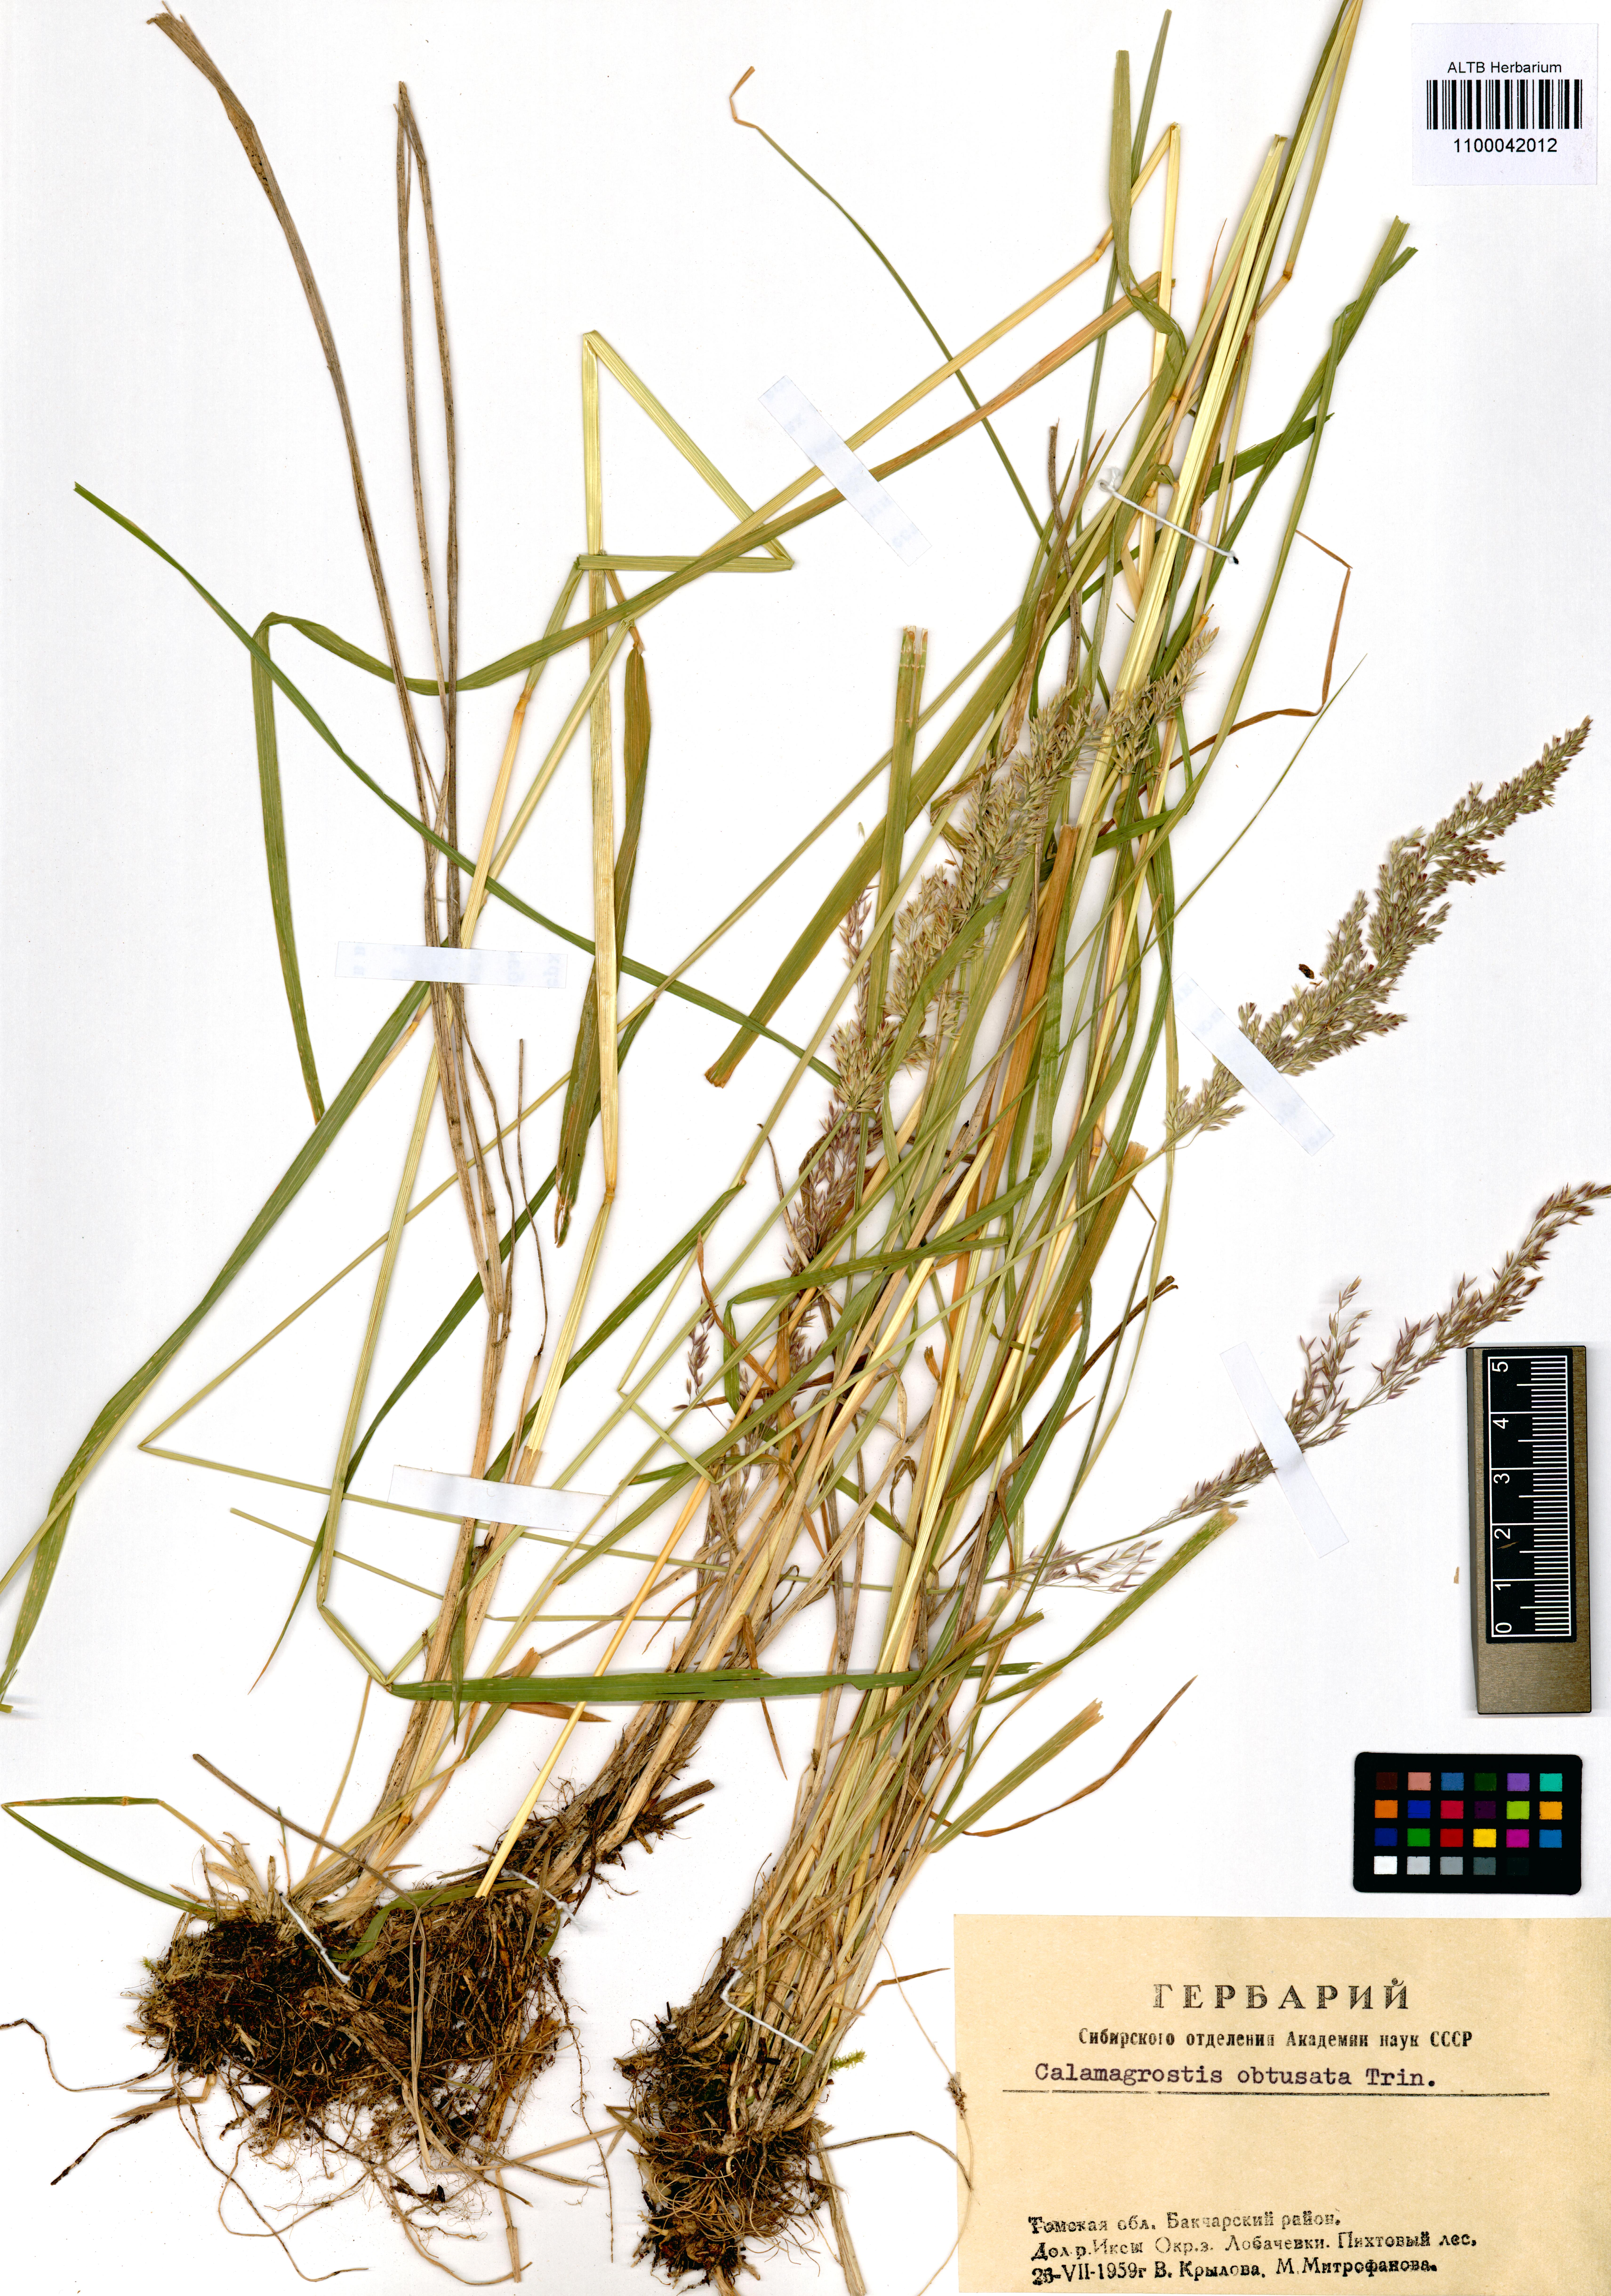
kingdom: Plantae
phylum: Tracheophyta
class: Liliopsida
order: Poales
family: Poaceae
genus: Calamagrostis
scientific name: Calamagrostis obtusata
